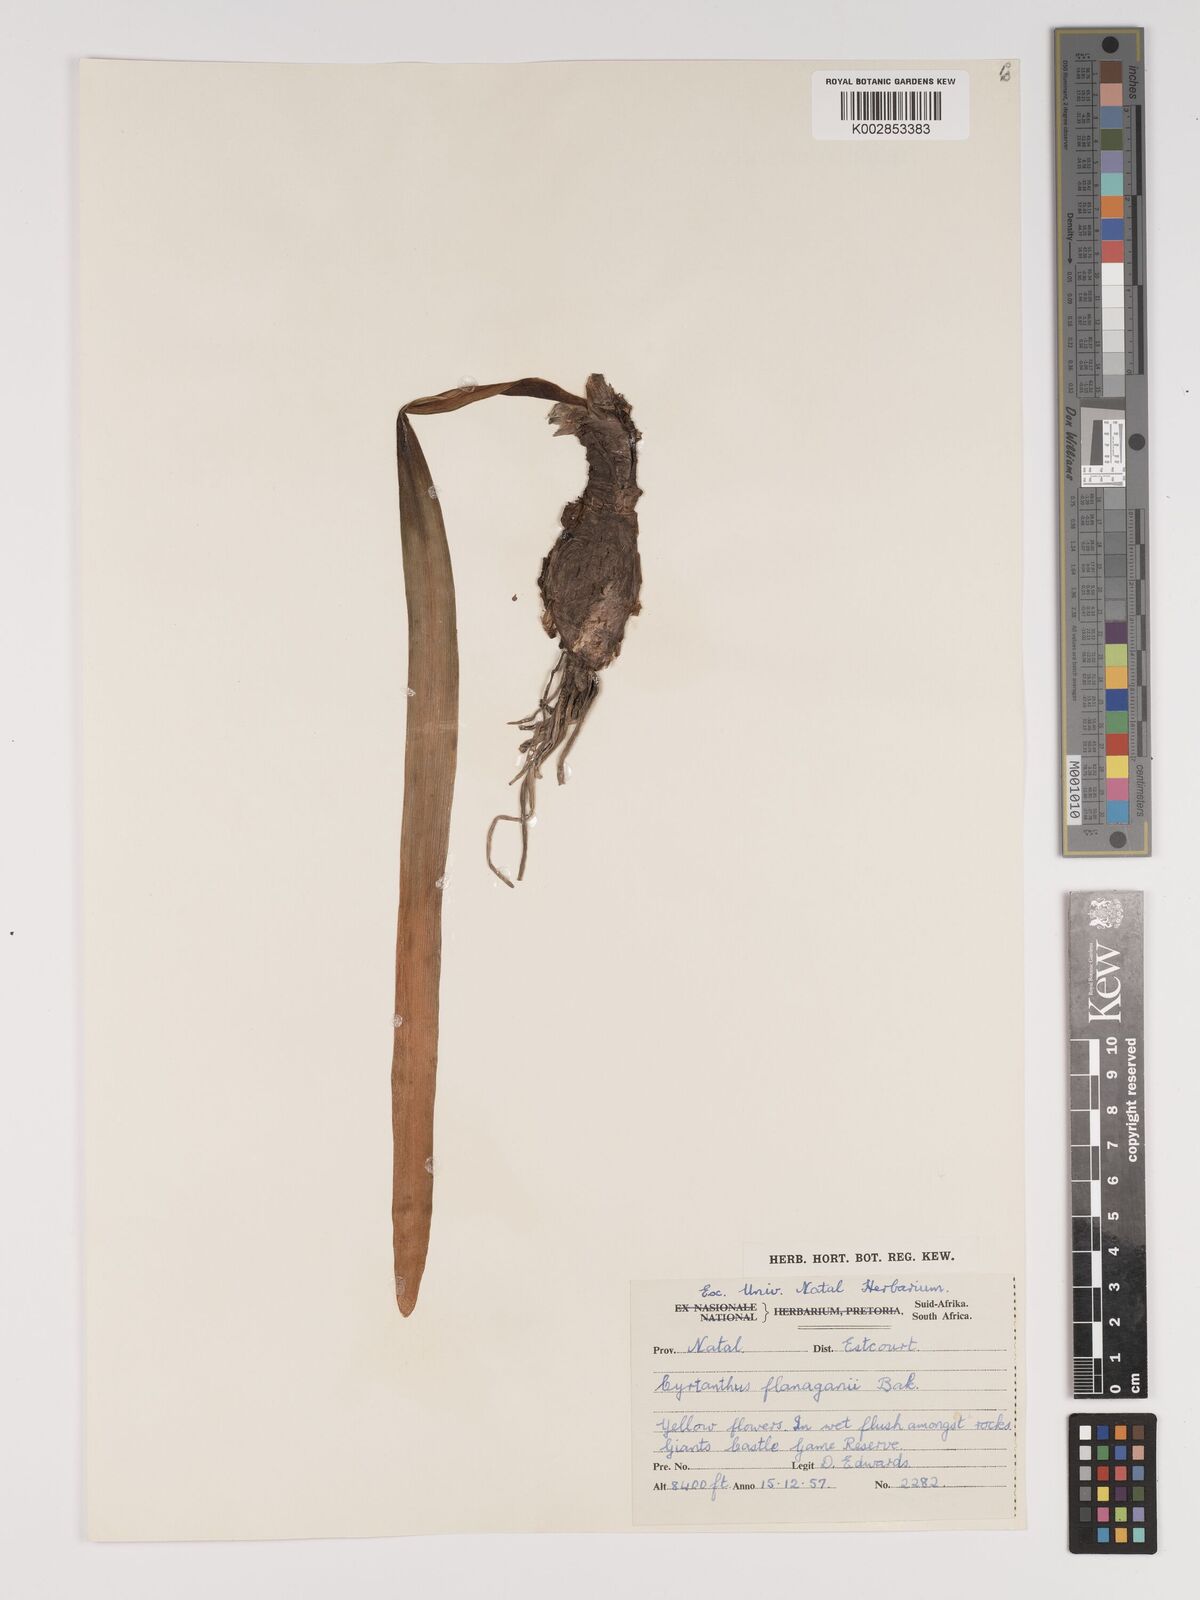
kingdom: Plantae
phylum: Tracheophyta
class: Liliopsida
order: Asparagales
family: Amaryllidaceae
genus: Cyrtanthus
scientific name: Cyrtanthus flanaganii
